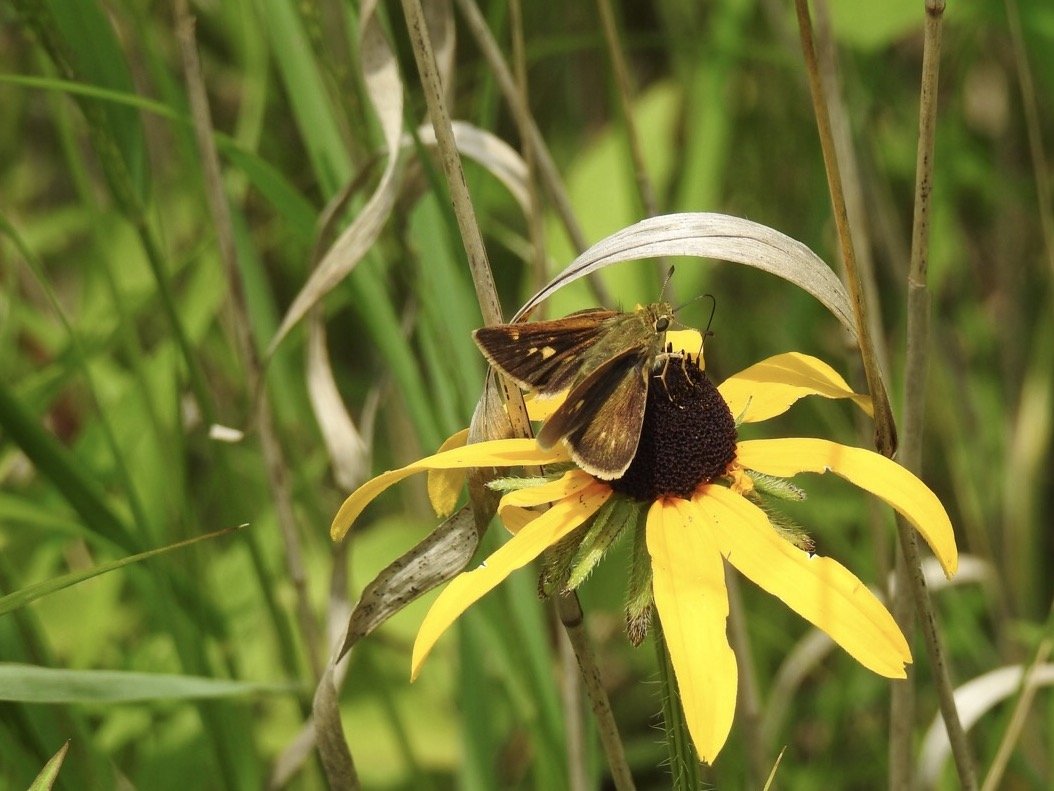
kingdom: Animalia
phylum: Arthropoda
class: Insecta
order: Lepidoptera
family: Hesperiidae
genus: Polites
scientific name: Polites
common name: Crossline Skipper
